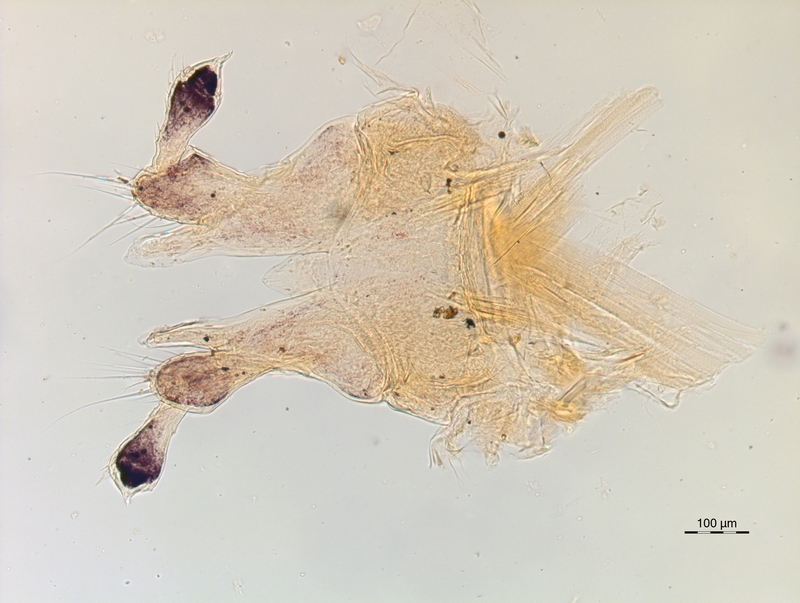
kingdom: Animalia
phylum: Arthropoda
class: Diplopoda
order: Chordeumatida
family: Chordeumatidae
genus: Chordeuma
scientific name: Chordeuma sylvestre
